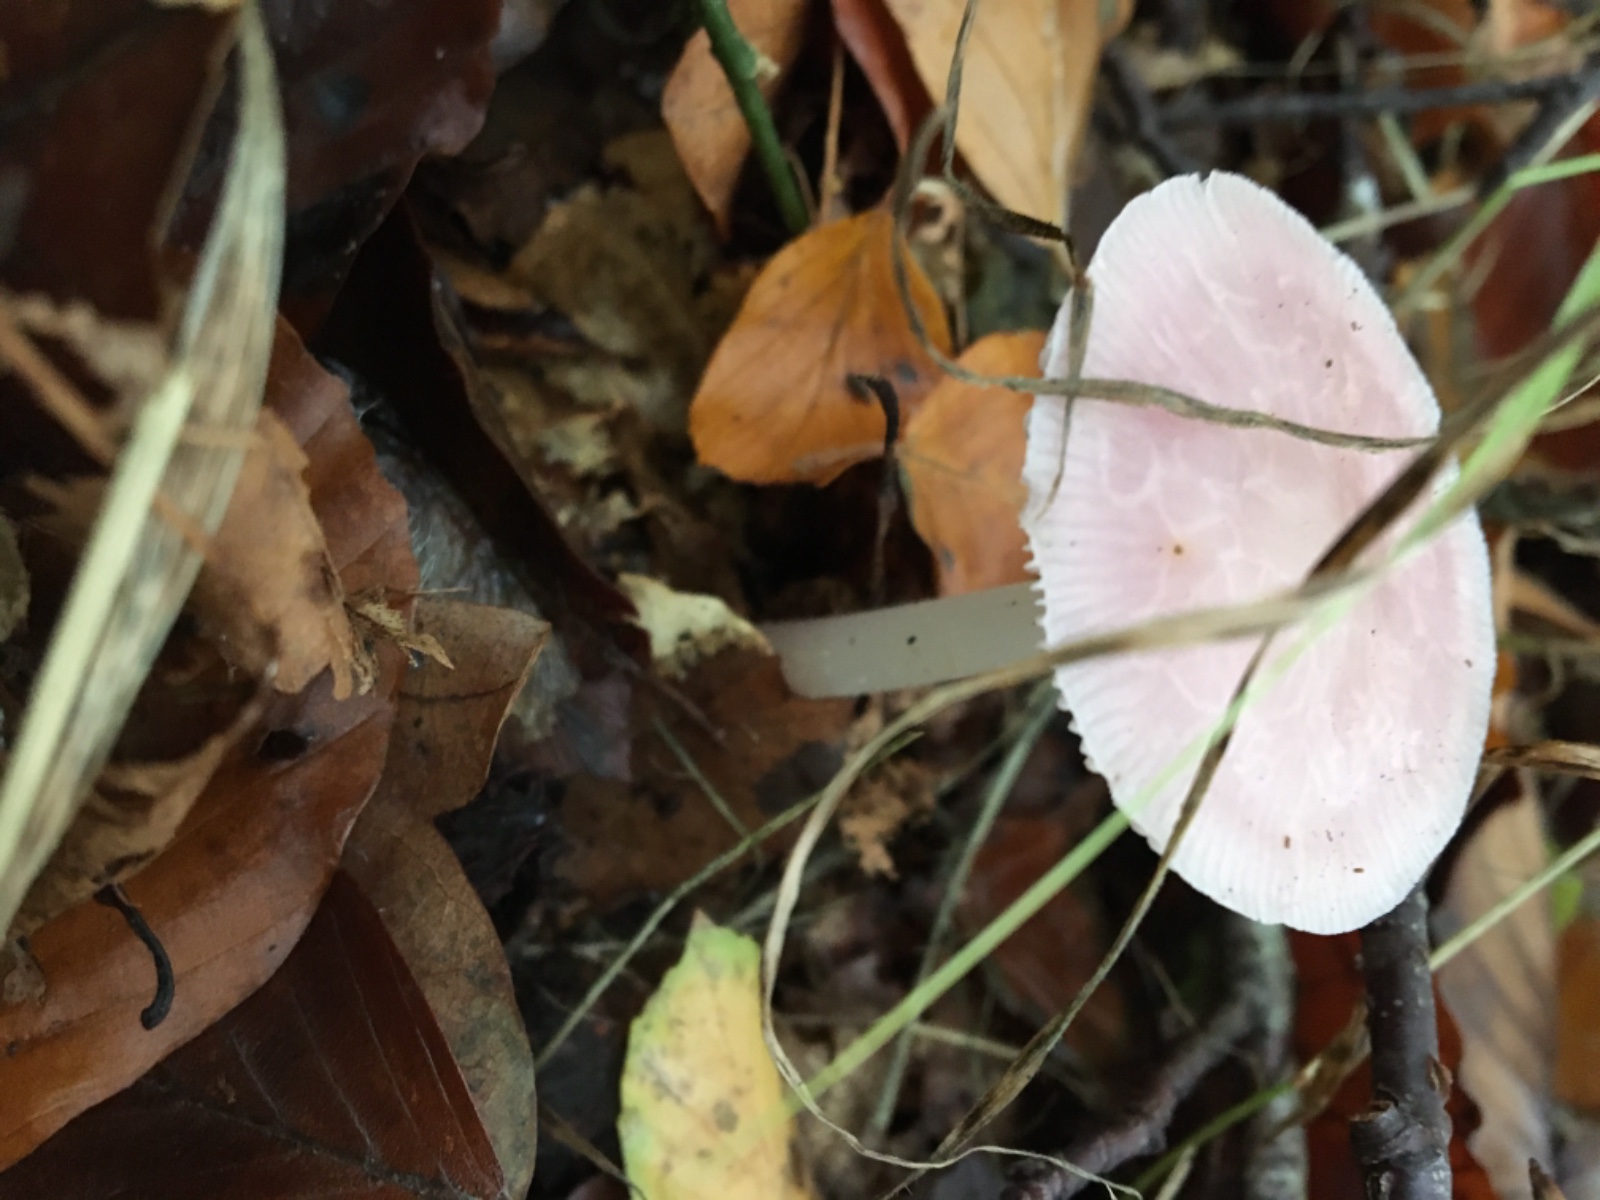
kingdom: Fungi
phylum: Basidiomycota
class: Agaricomycetes
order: Agaricales
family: Mycenaceae
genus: Mycena
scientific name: Mycena rosea
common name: rosa huesvamp
